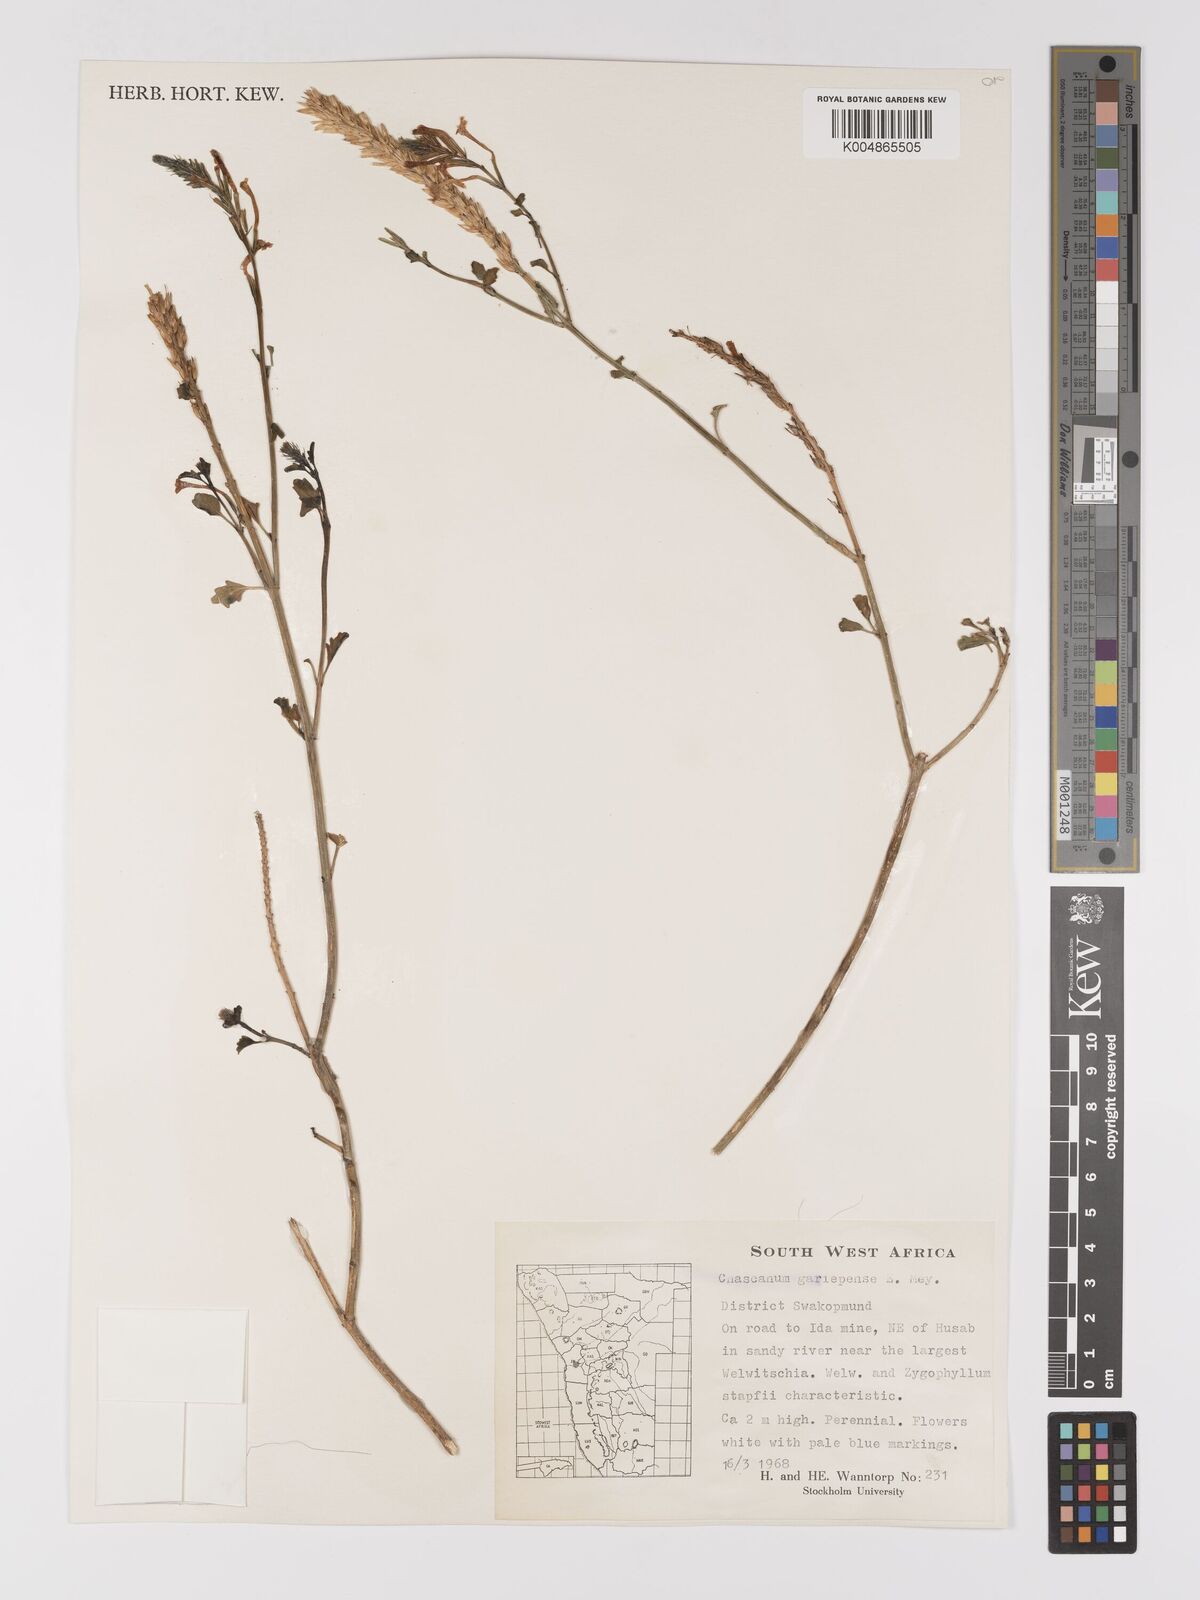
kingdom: Plantae
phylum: Tracheophyta
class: Magnoliopsida
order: Lamiales
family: Verbenaceae
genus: Chascanum
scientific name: Chascanum garipense
